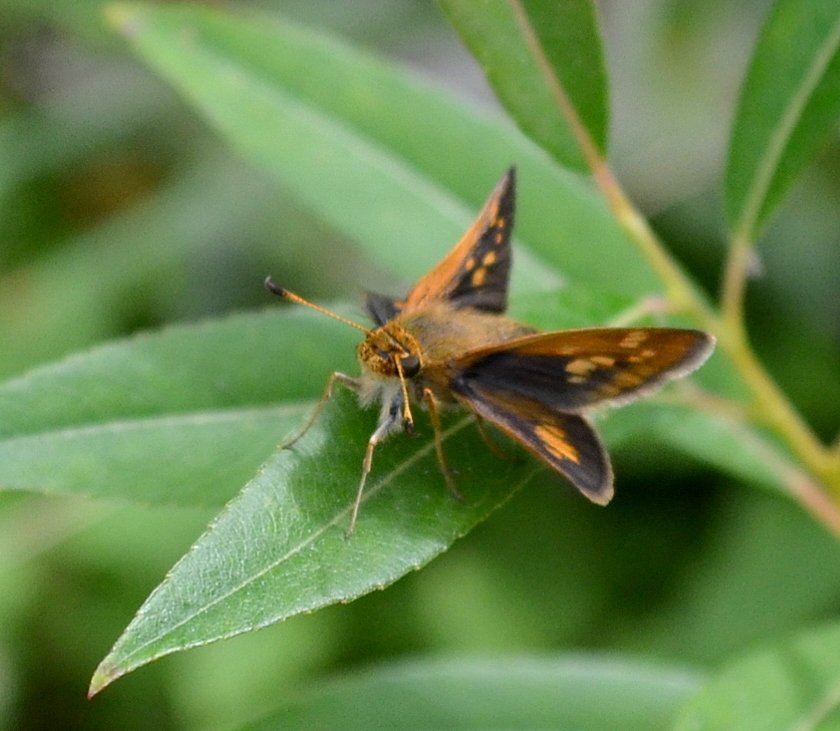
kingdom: Animalia
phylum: Arthropoda
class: Insecta
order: Lepidoptera
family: Hesperiidae
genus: Polites
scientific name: Polites coras
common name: Peck's Skipper
